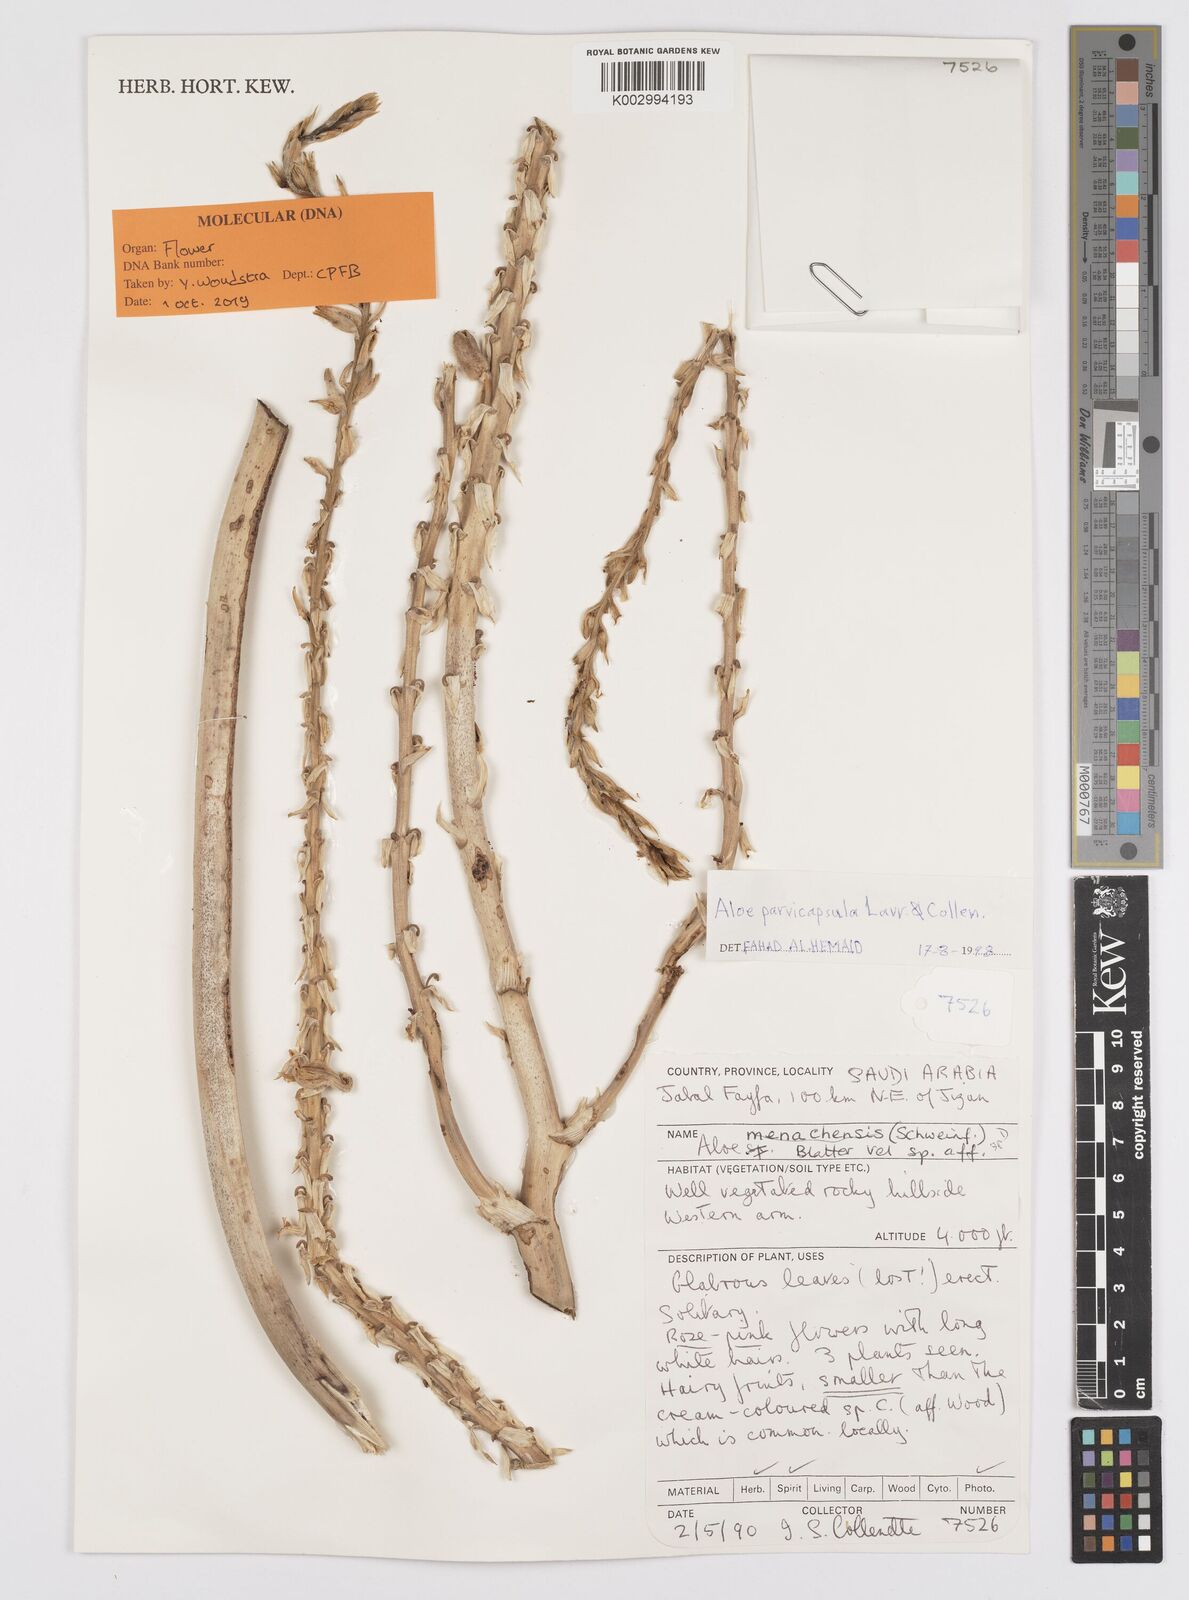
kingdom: Plantae
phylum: Tracheophyta
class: Liliopsida
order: Asparagales
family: Asphodelaceae
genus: Aloe
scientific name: Aloe parvicapsula
